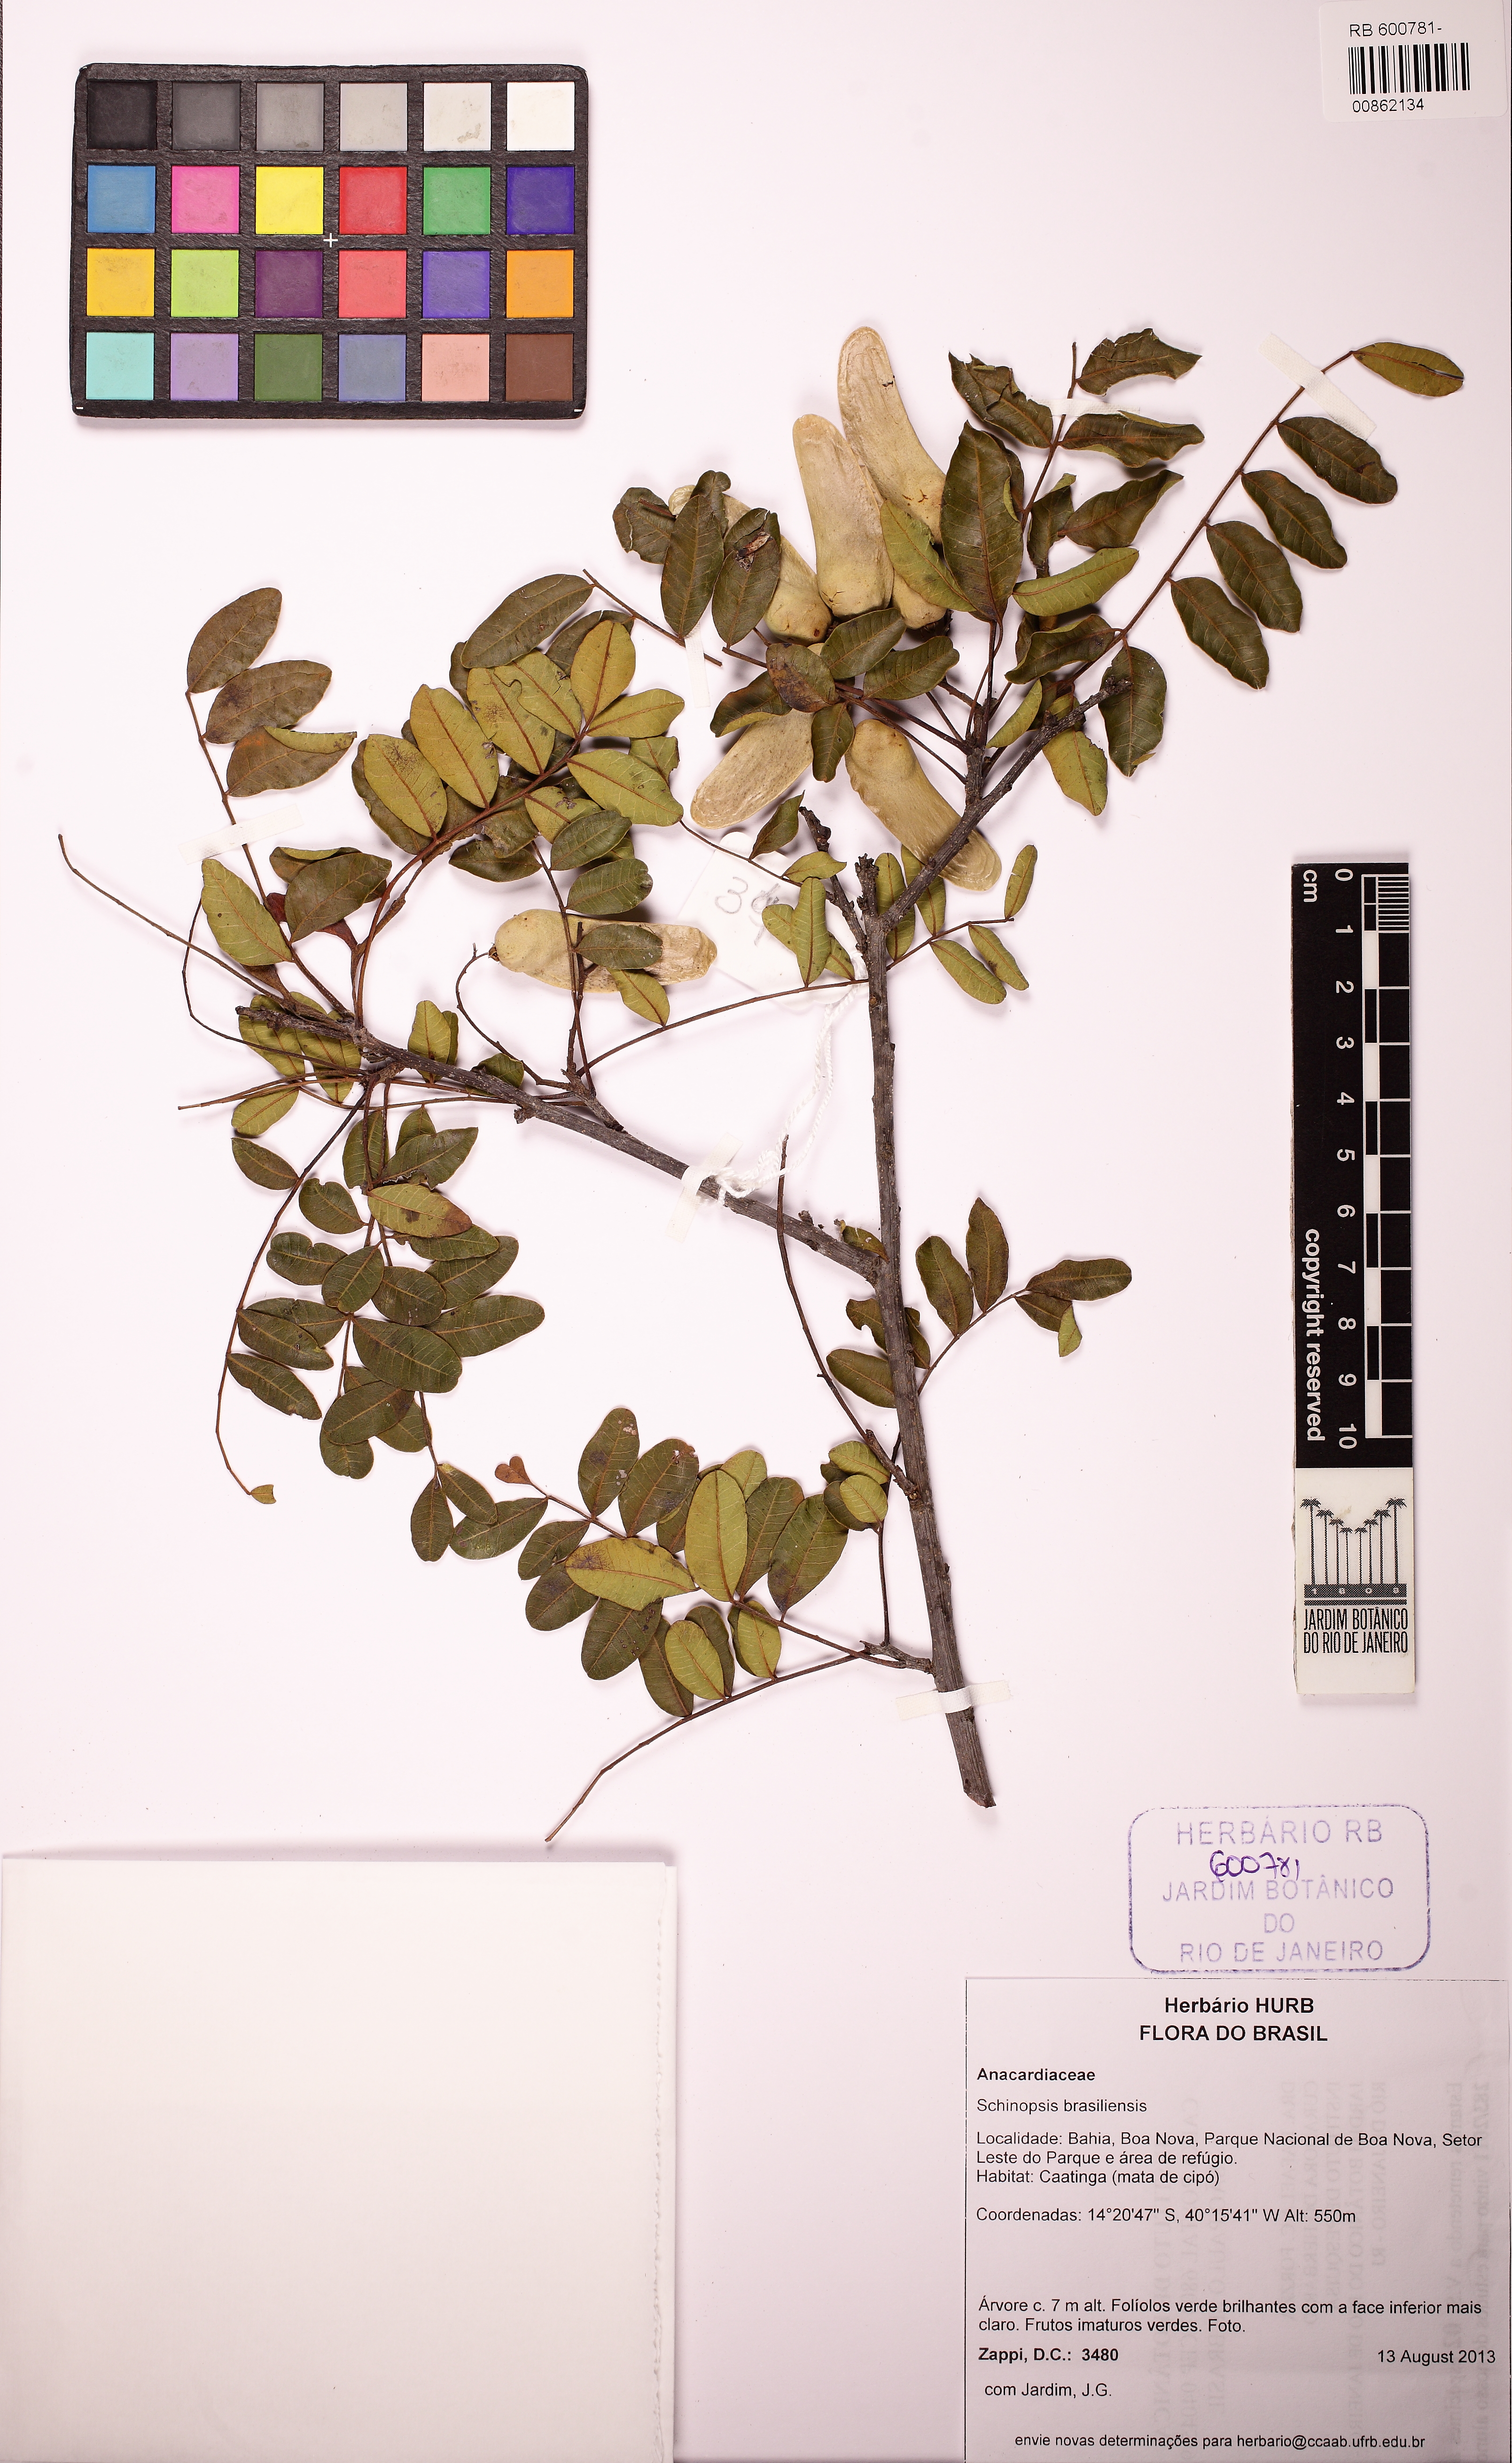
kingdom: Plantae
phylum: Tracheophyta
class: Magnoliopsida
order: Sapindales
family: Anacardiaceae
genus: Schinopsis
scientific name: Schinopsis brasiliensis
